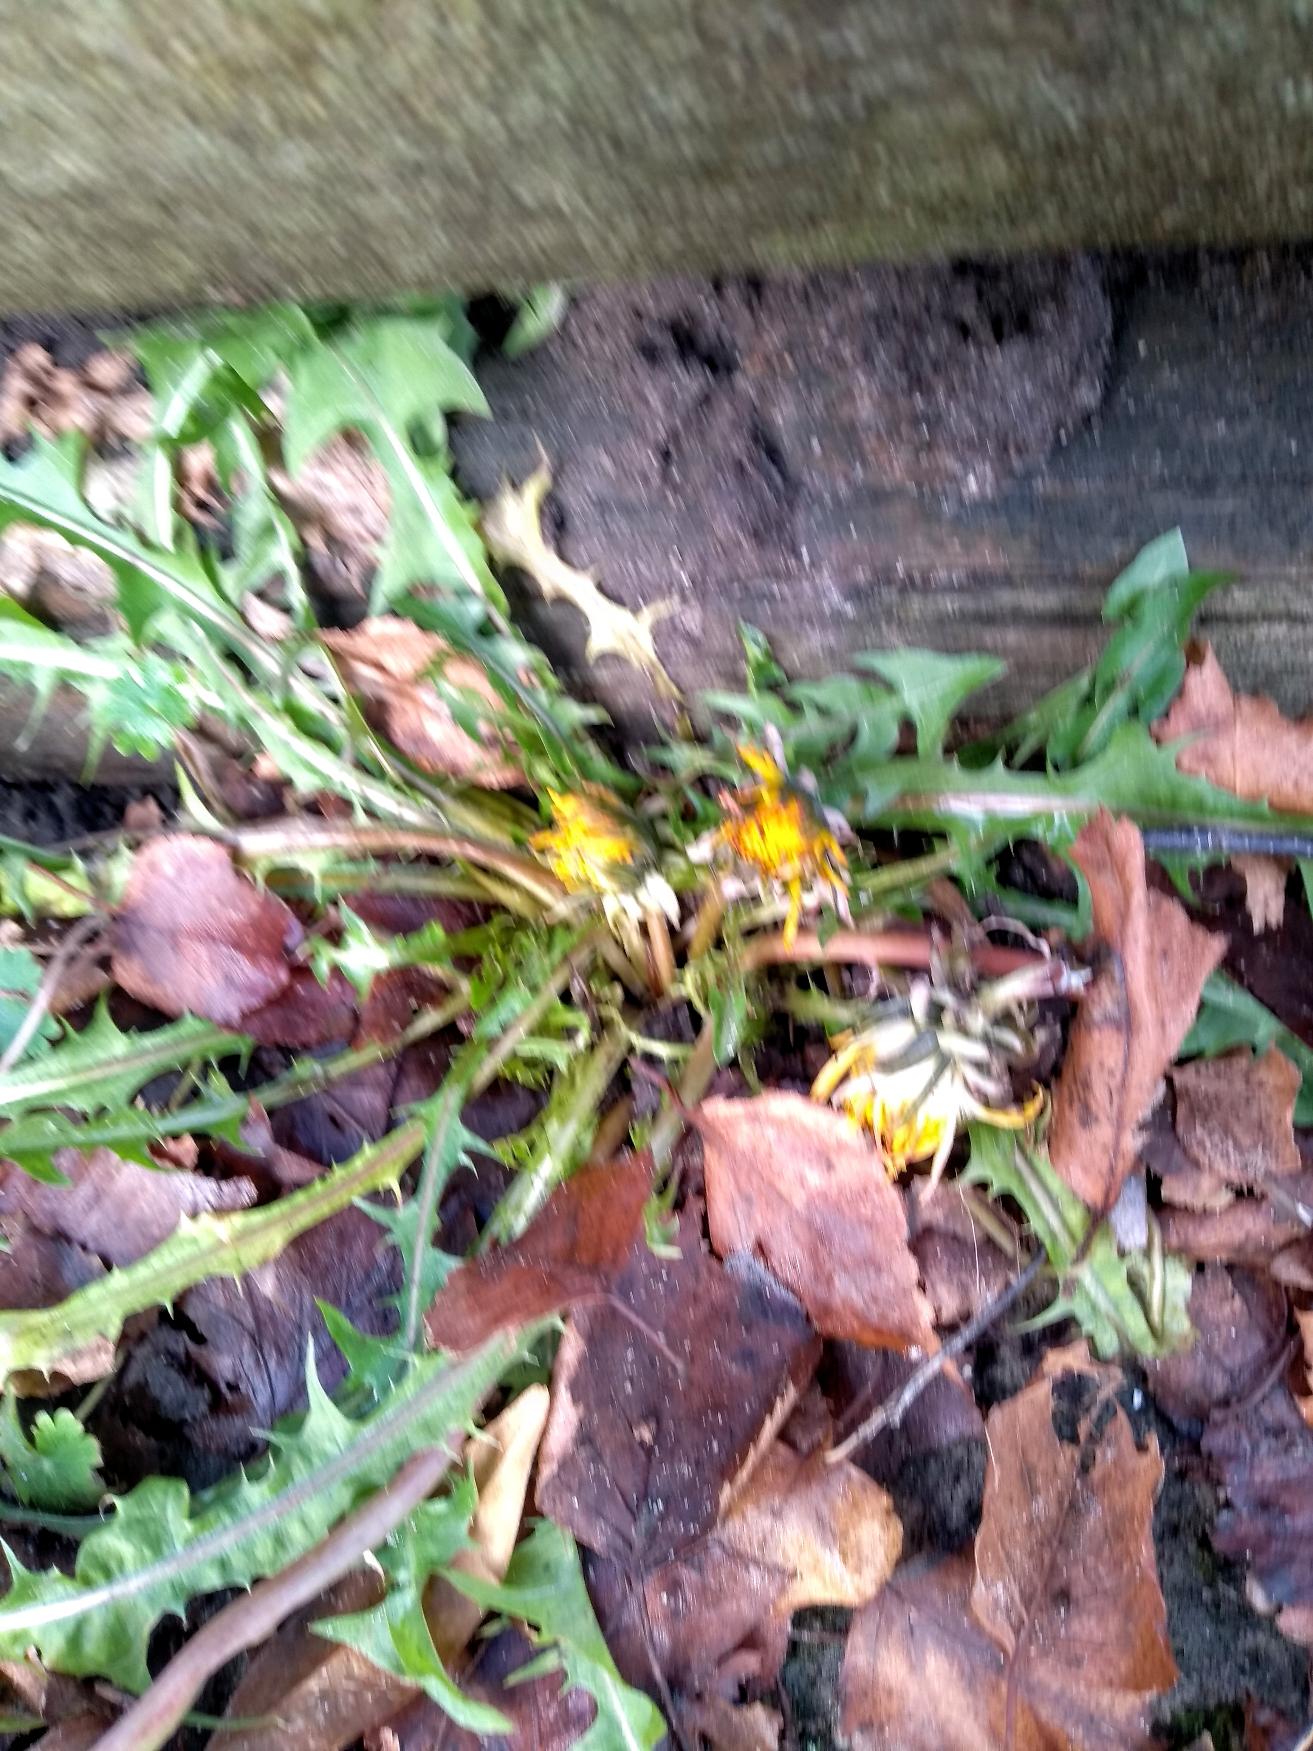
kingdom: Plantae
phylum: Tracheophyta
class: Magnoliopsida
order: Asterales
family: Asteraceae
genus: Taraxacum
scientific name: Taraxacum
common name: Mælkebøtteslægten
